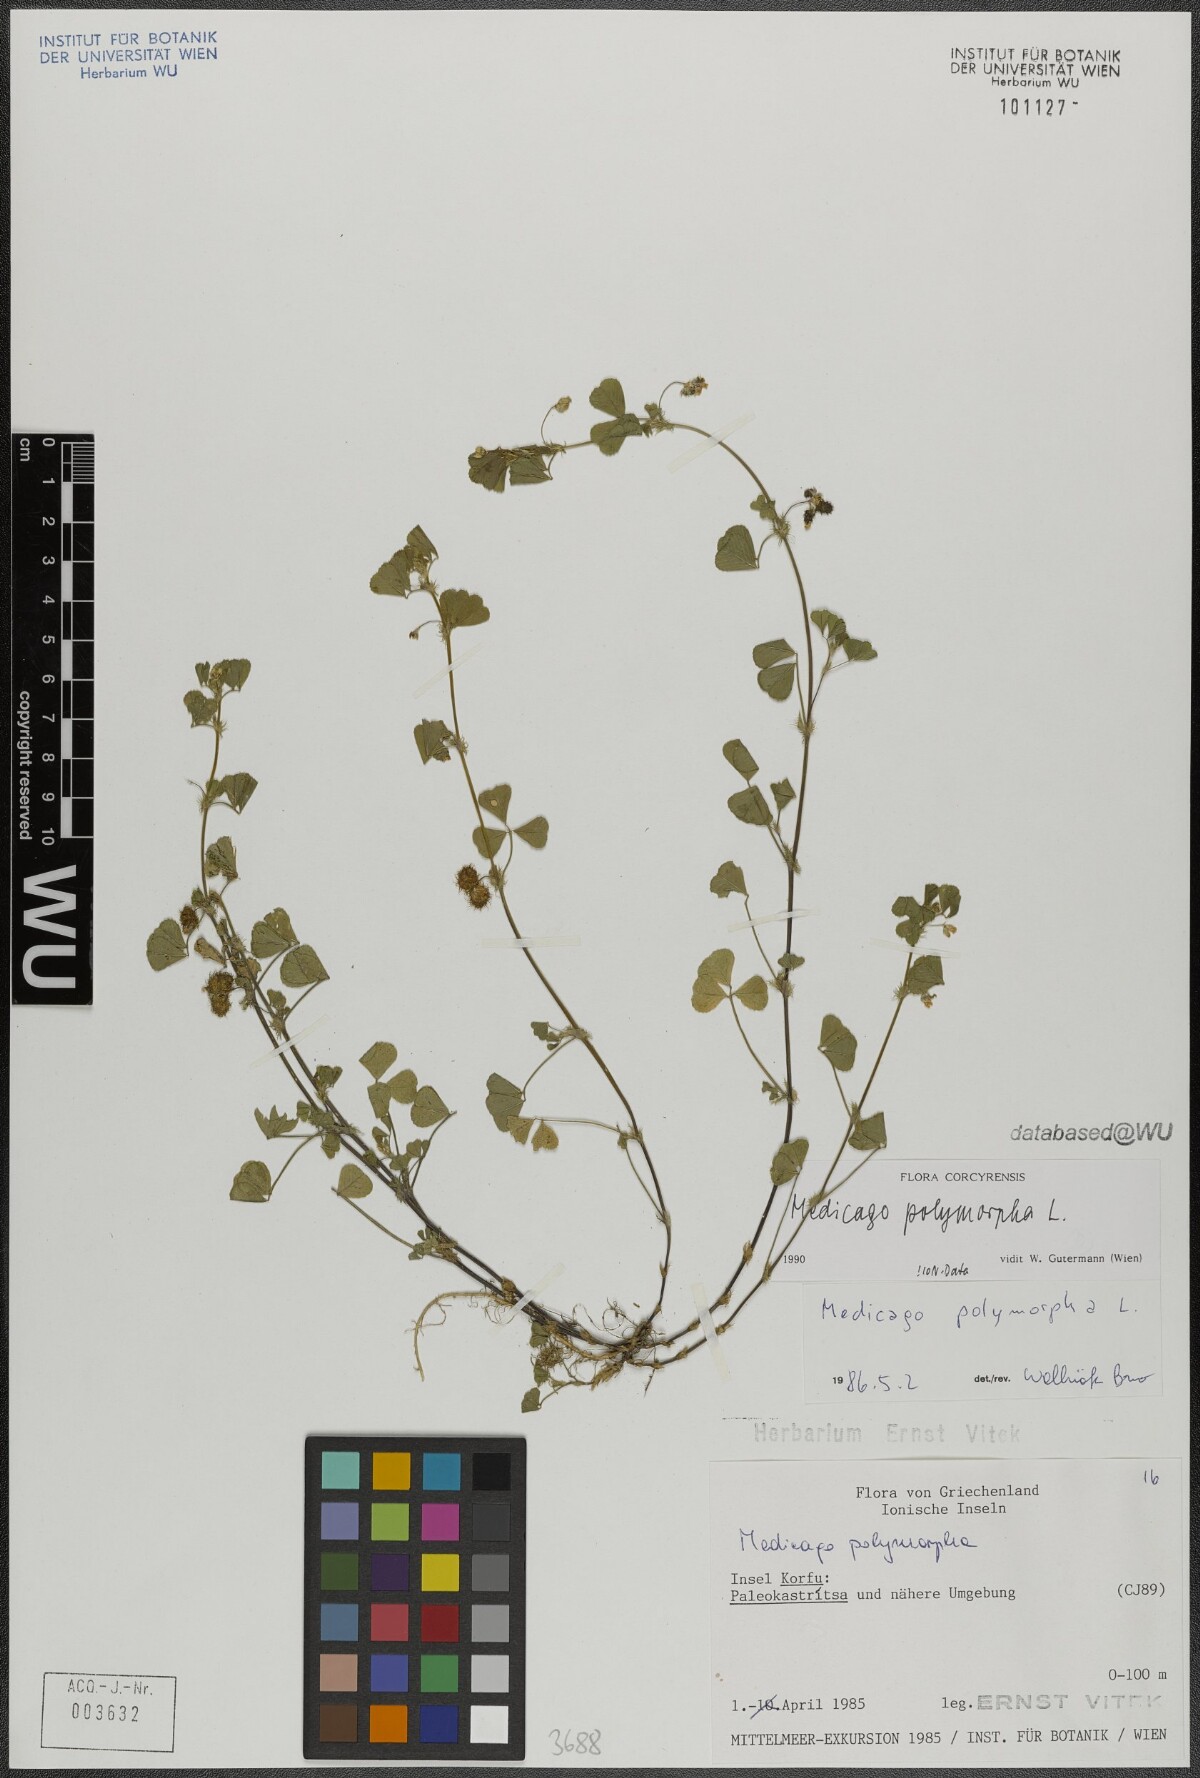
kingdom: Plantae
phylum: Tracheophyta
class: Magnoliopsida
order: Fabales
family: Fabaceae
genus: Medicago
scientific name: Medicago polymorpha
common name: Burclover
